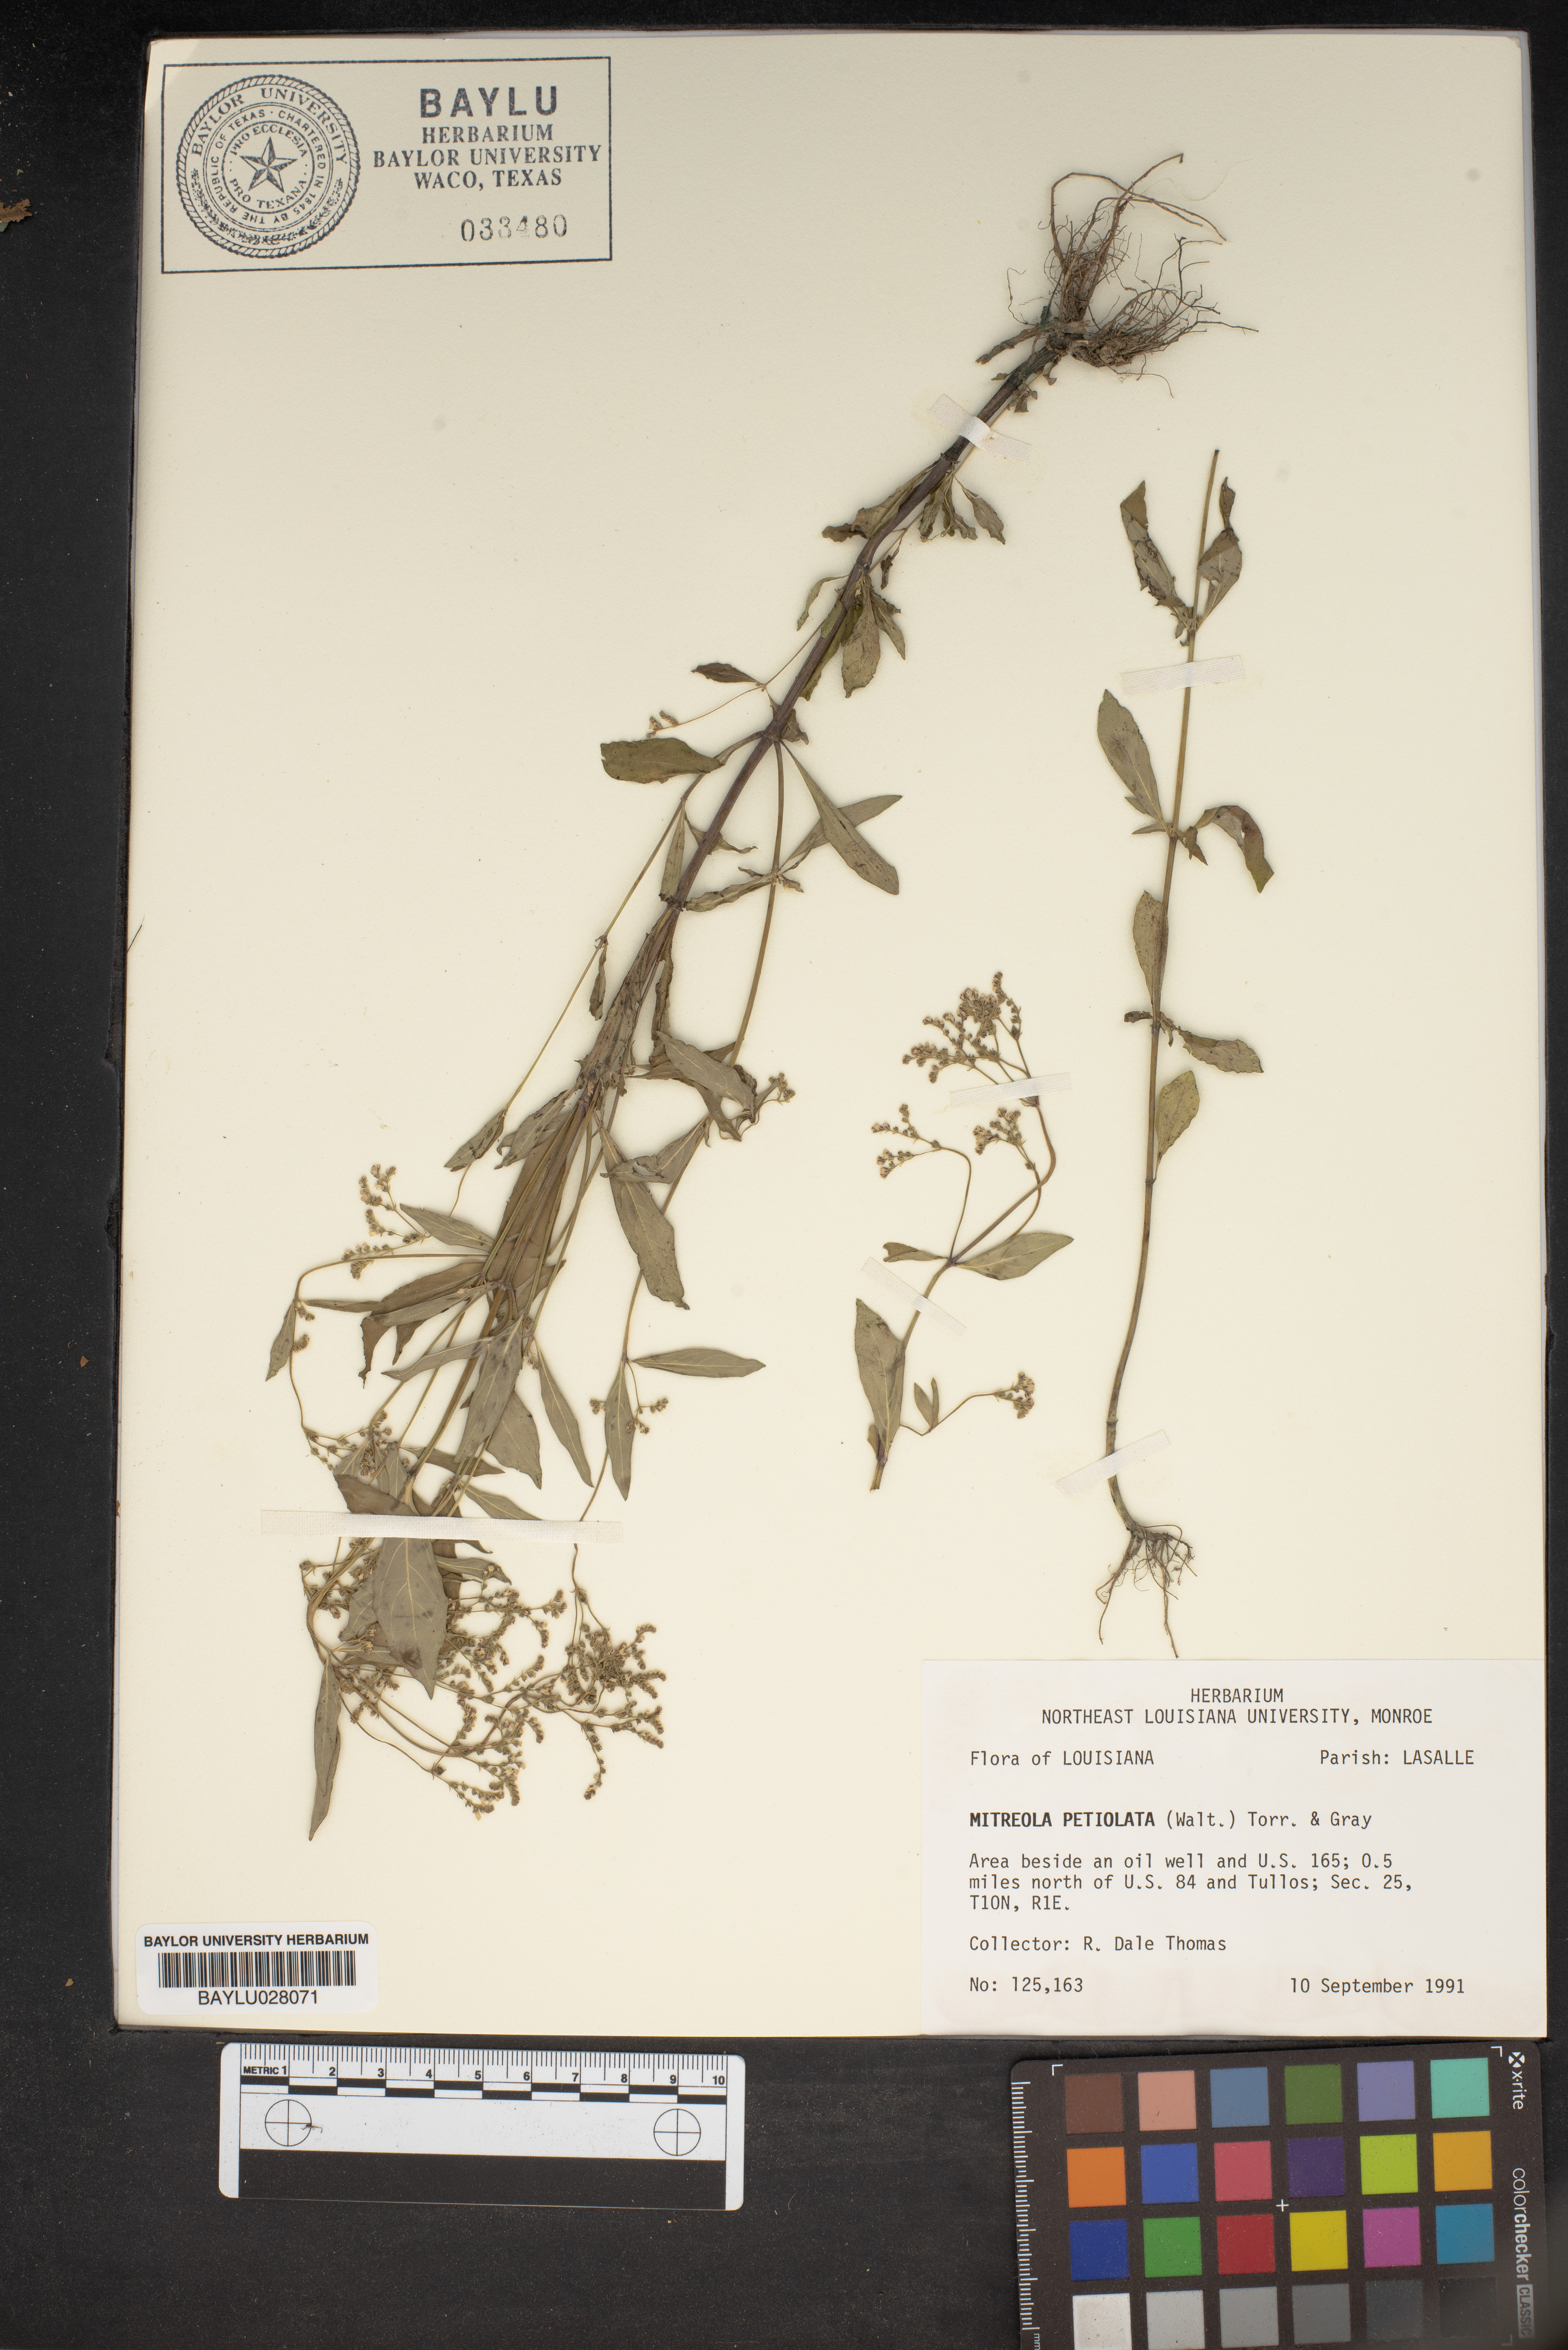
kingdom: Plantae
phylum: Tracheophyta
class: Magnoliopsida
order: Gentianales
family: Loganiaceae
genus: Mitreola
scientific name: Mitreola petiolata
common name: Lax hornpod
